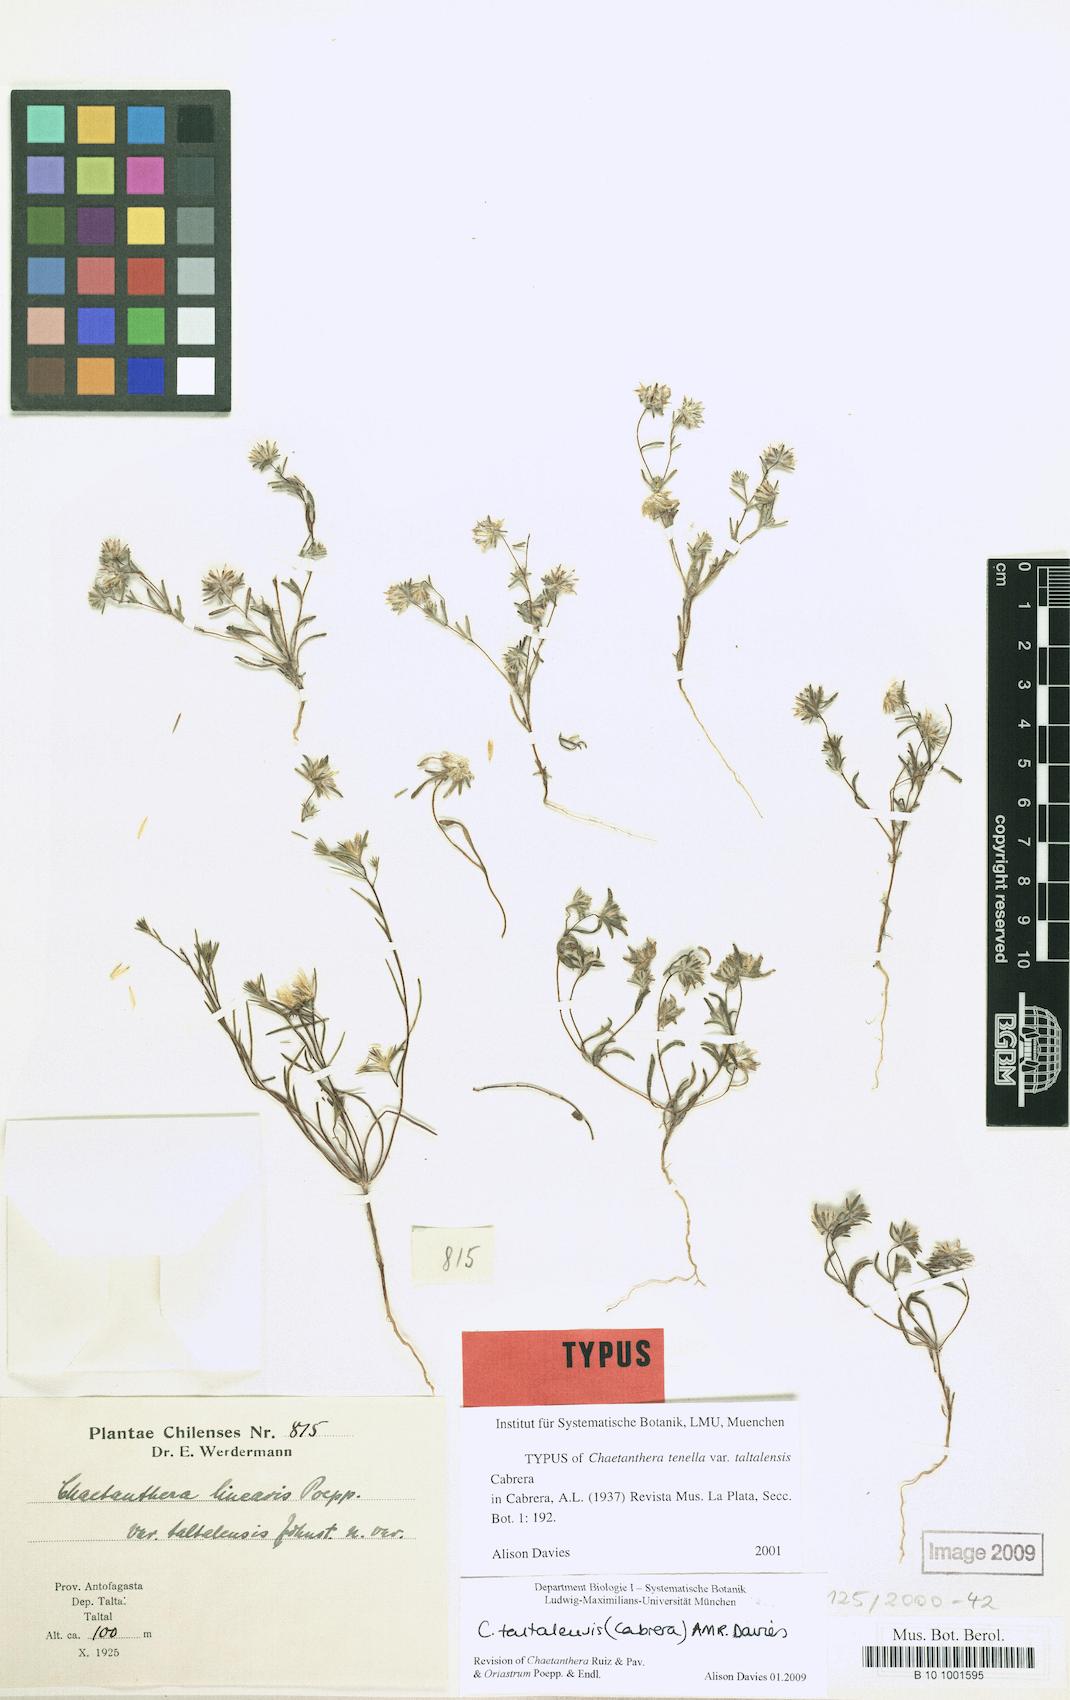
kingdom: Plantae
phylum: Tracheophyta
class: Magnoliopsida
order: Asterales
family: Asteraceae
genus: Chaetanthera
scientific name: Chaetanthera taltalensis
